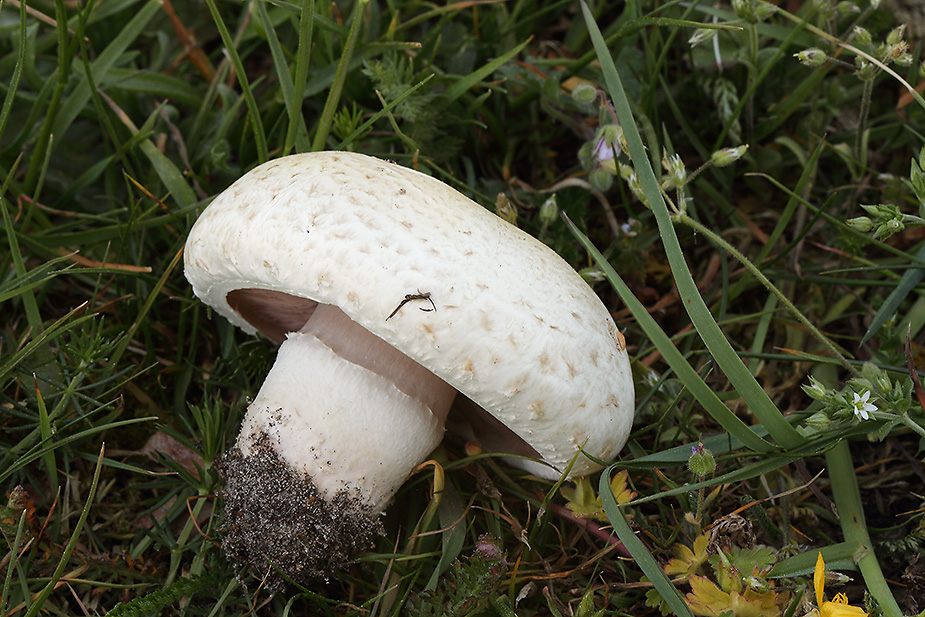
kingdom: Fungi
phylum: Basidiomycota
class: Agaricomycetes
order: Agaricales
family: Agaricaceae
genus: Agaricus
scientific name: Agaricus litoralis
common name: kyst-champignon
